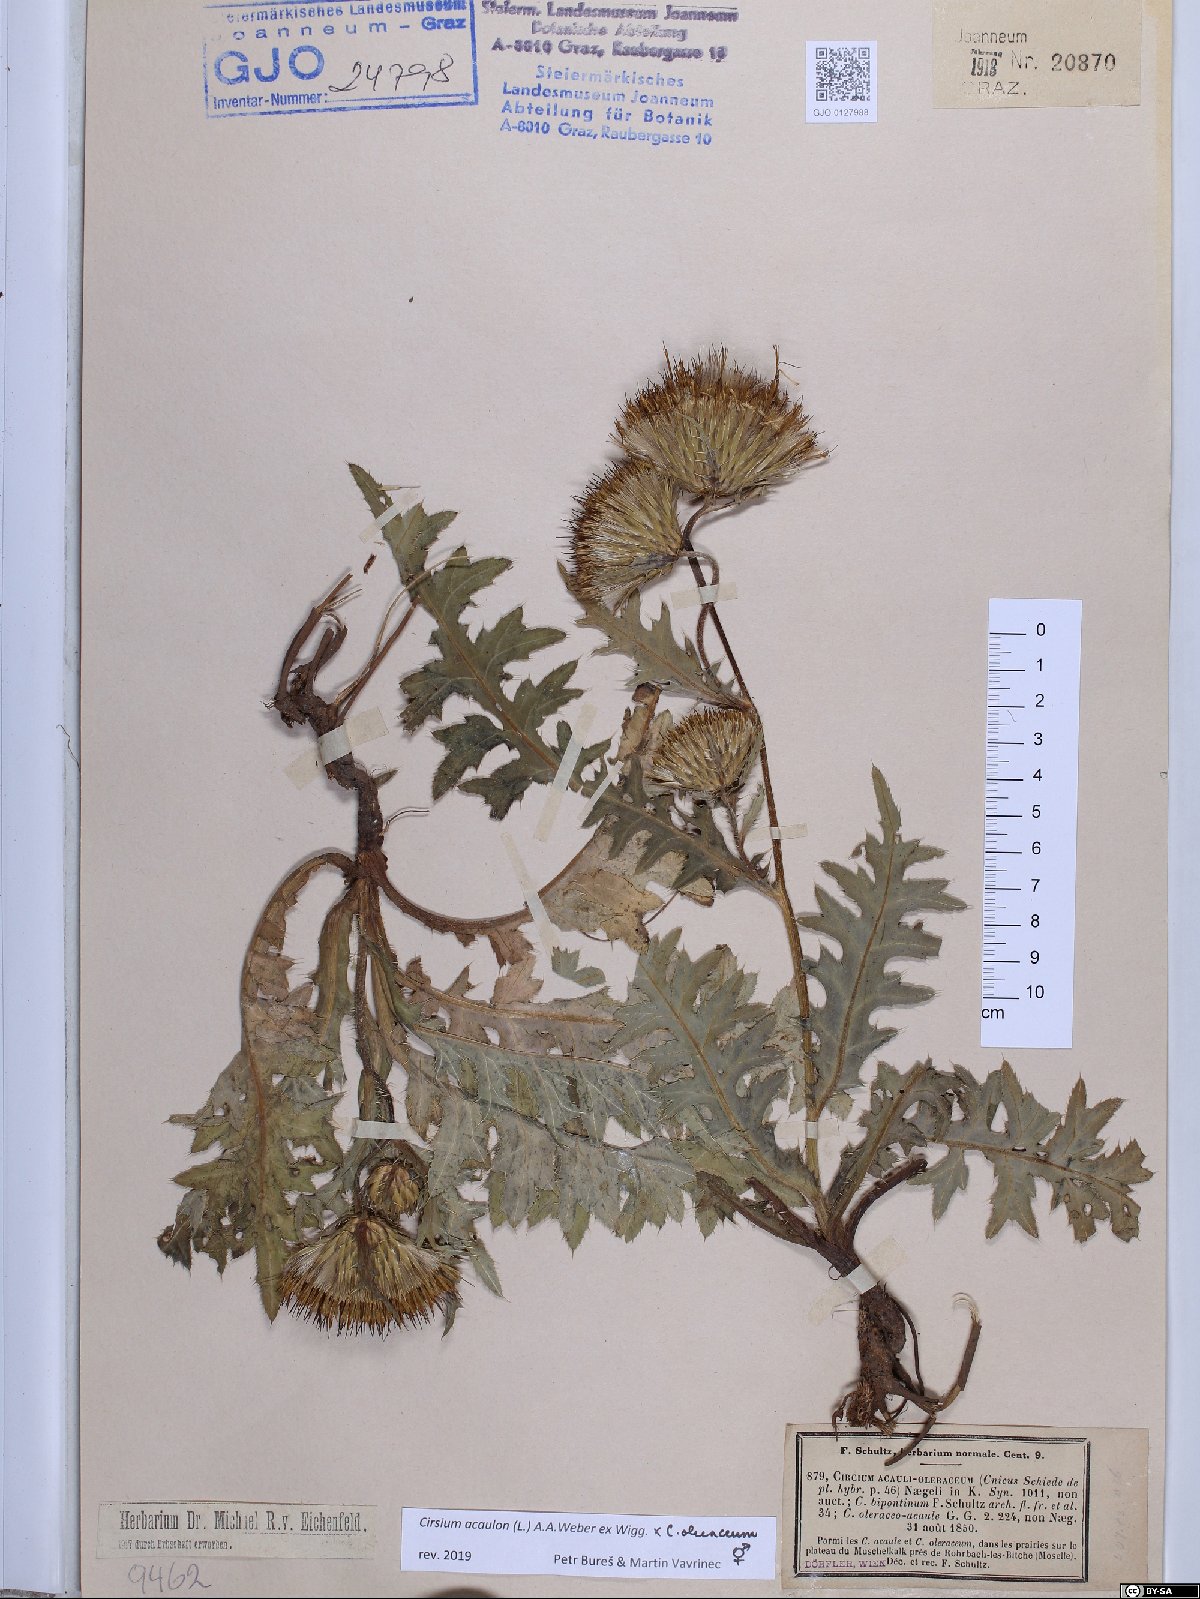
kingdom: Plantae
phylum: Tracheophyta
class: Magnoliopsida
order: Asterales
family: Asteraceae
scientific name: Asteraceae
